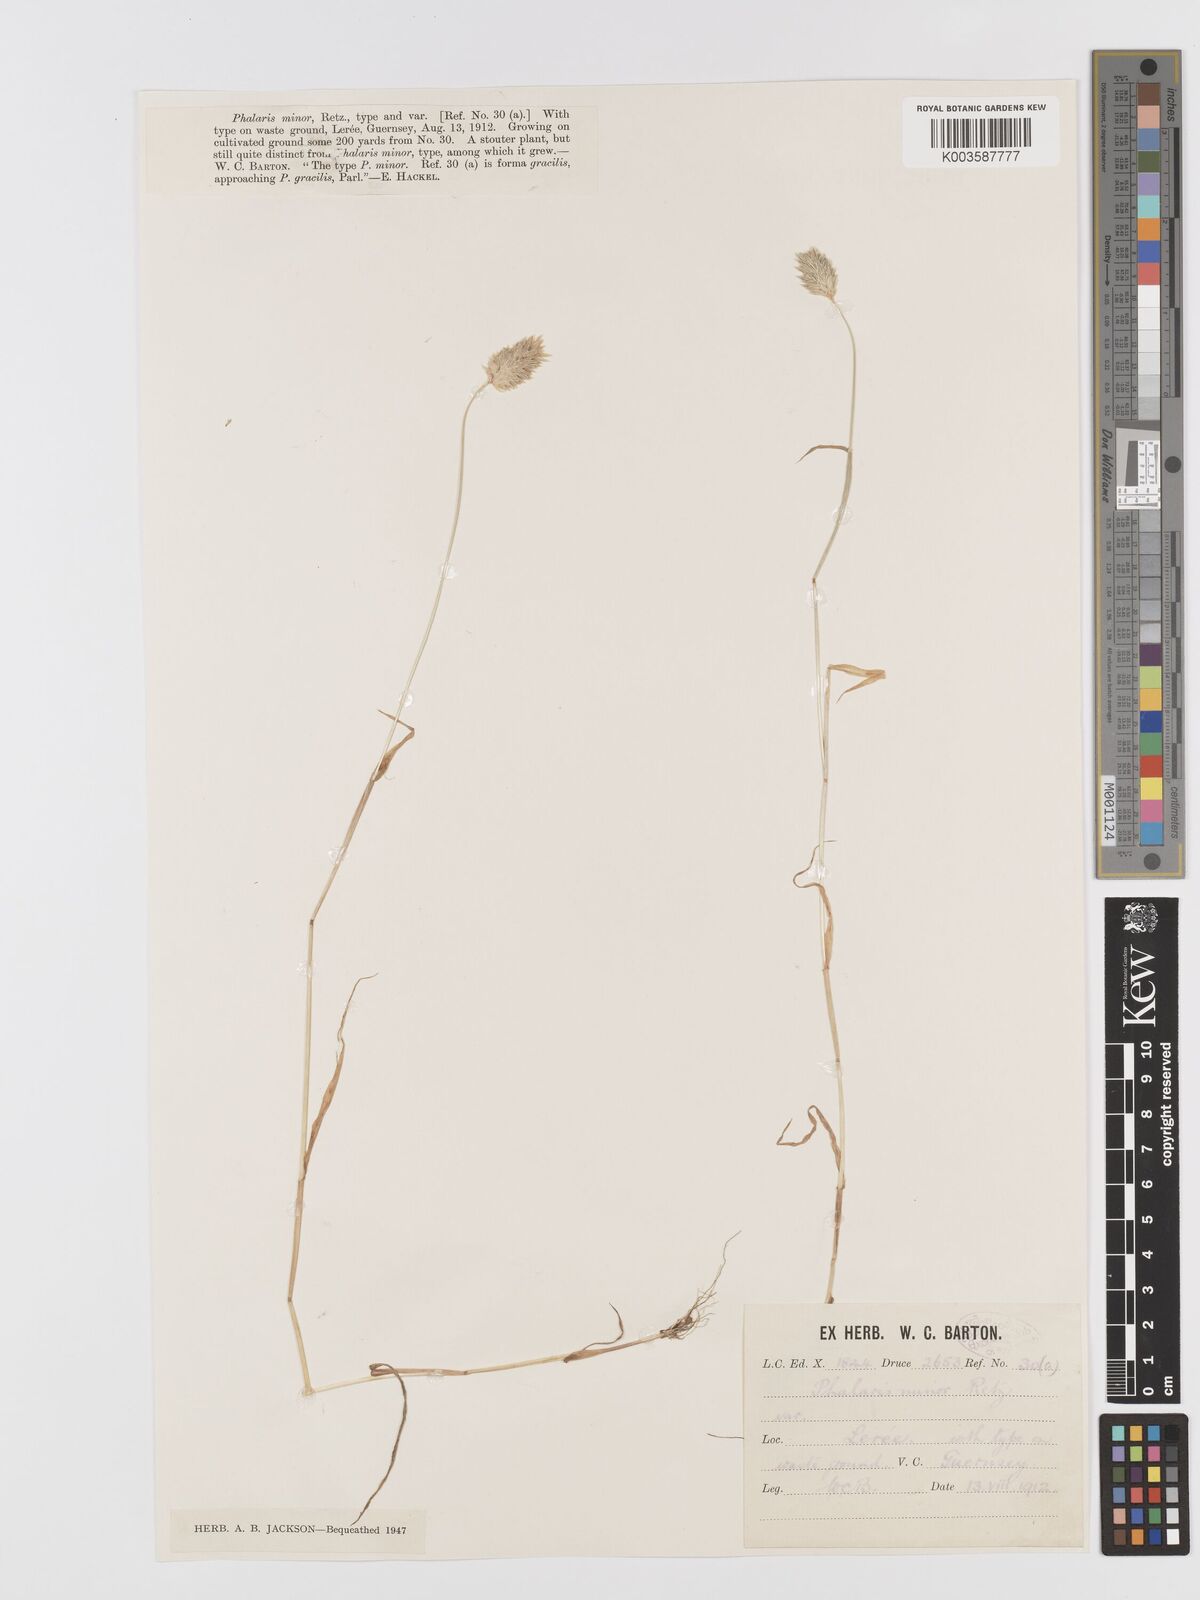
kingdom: Plantae
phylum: Tracheophyta
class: Liliopsida
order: Poales
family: Poaceae
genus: Phalaris
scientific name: Phalaris minor
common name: Littleseed canarygrass
